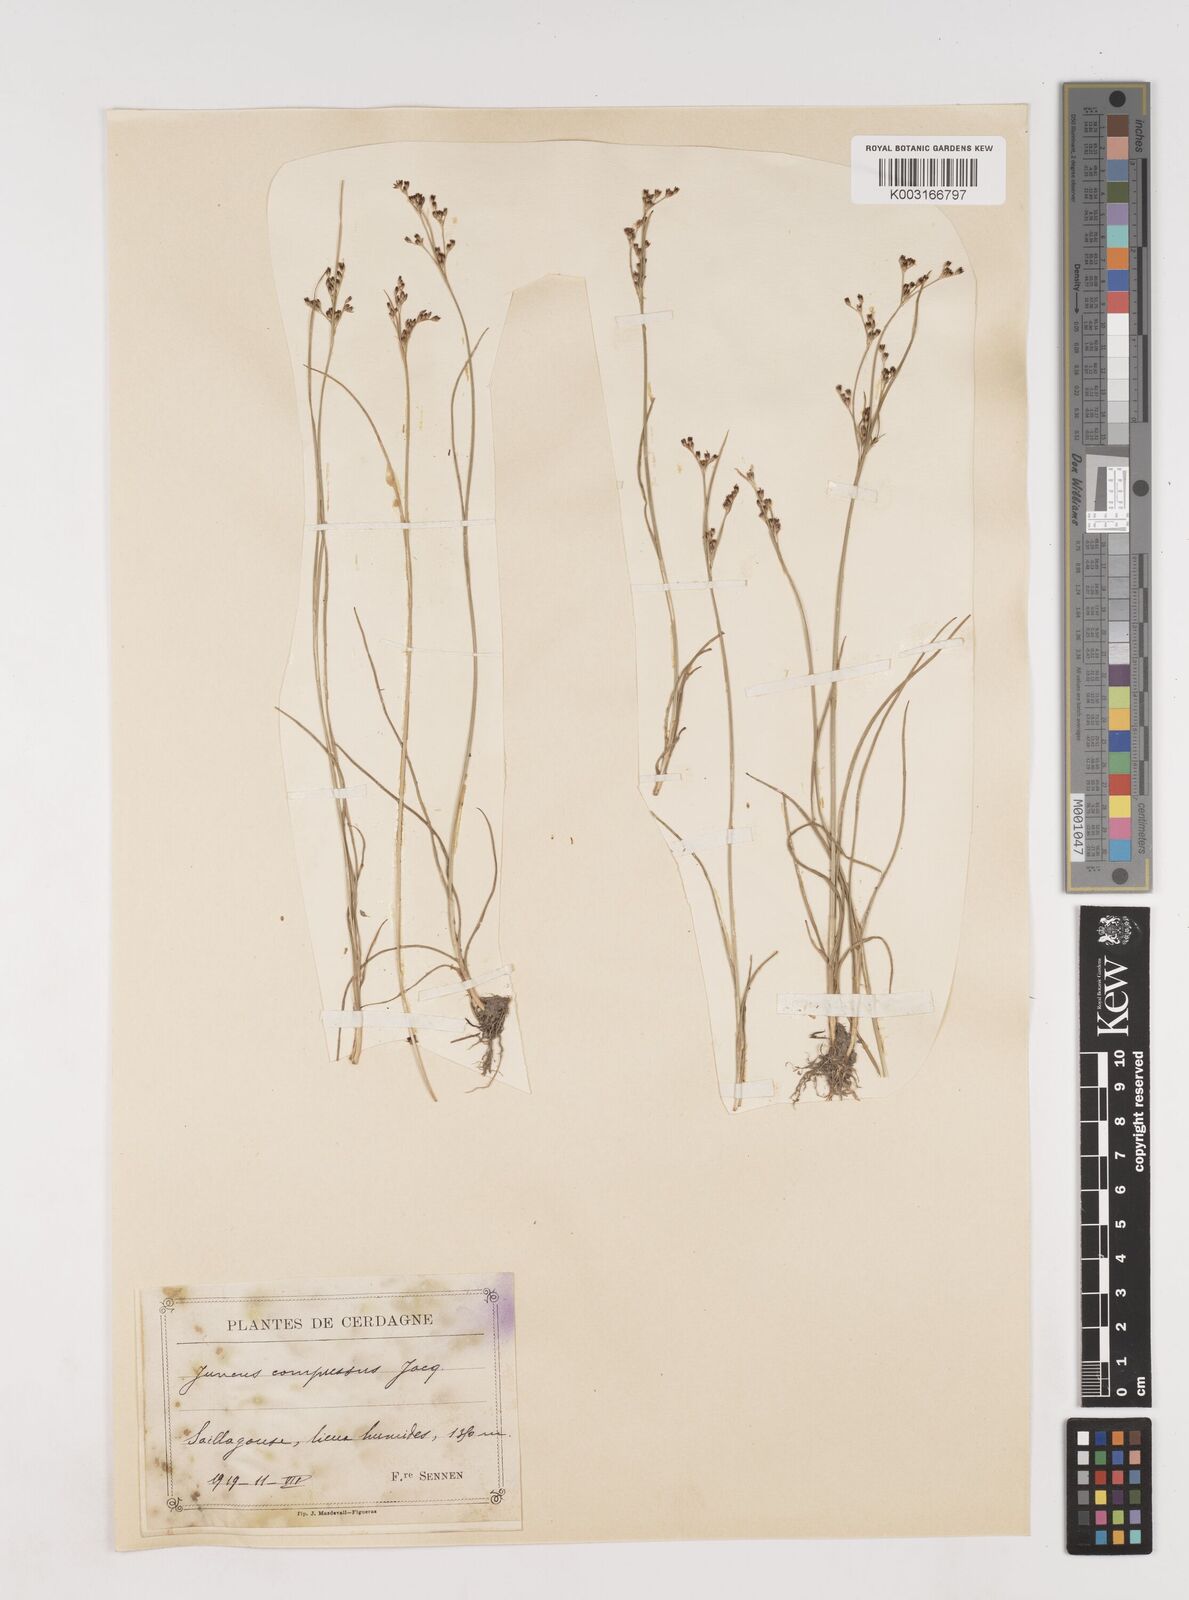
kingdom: Plantae
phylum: Tracheophyta
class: Liliopsida
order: Poales
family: Juncaceae
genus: Juncus
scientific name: Juncus compressus
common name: Round-fruited rush
